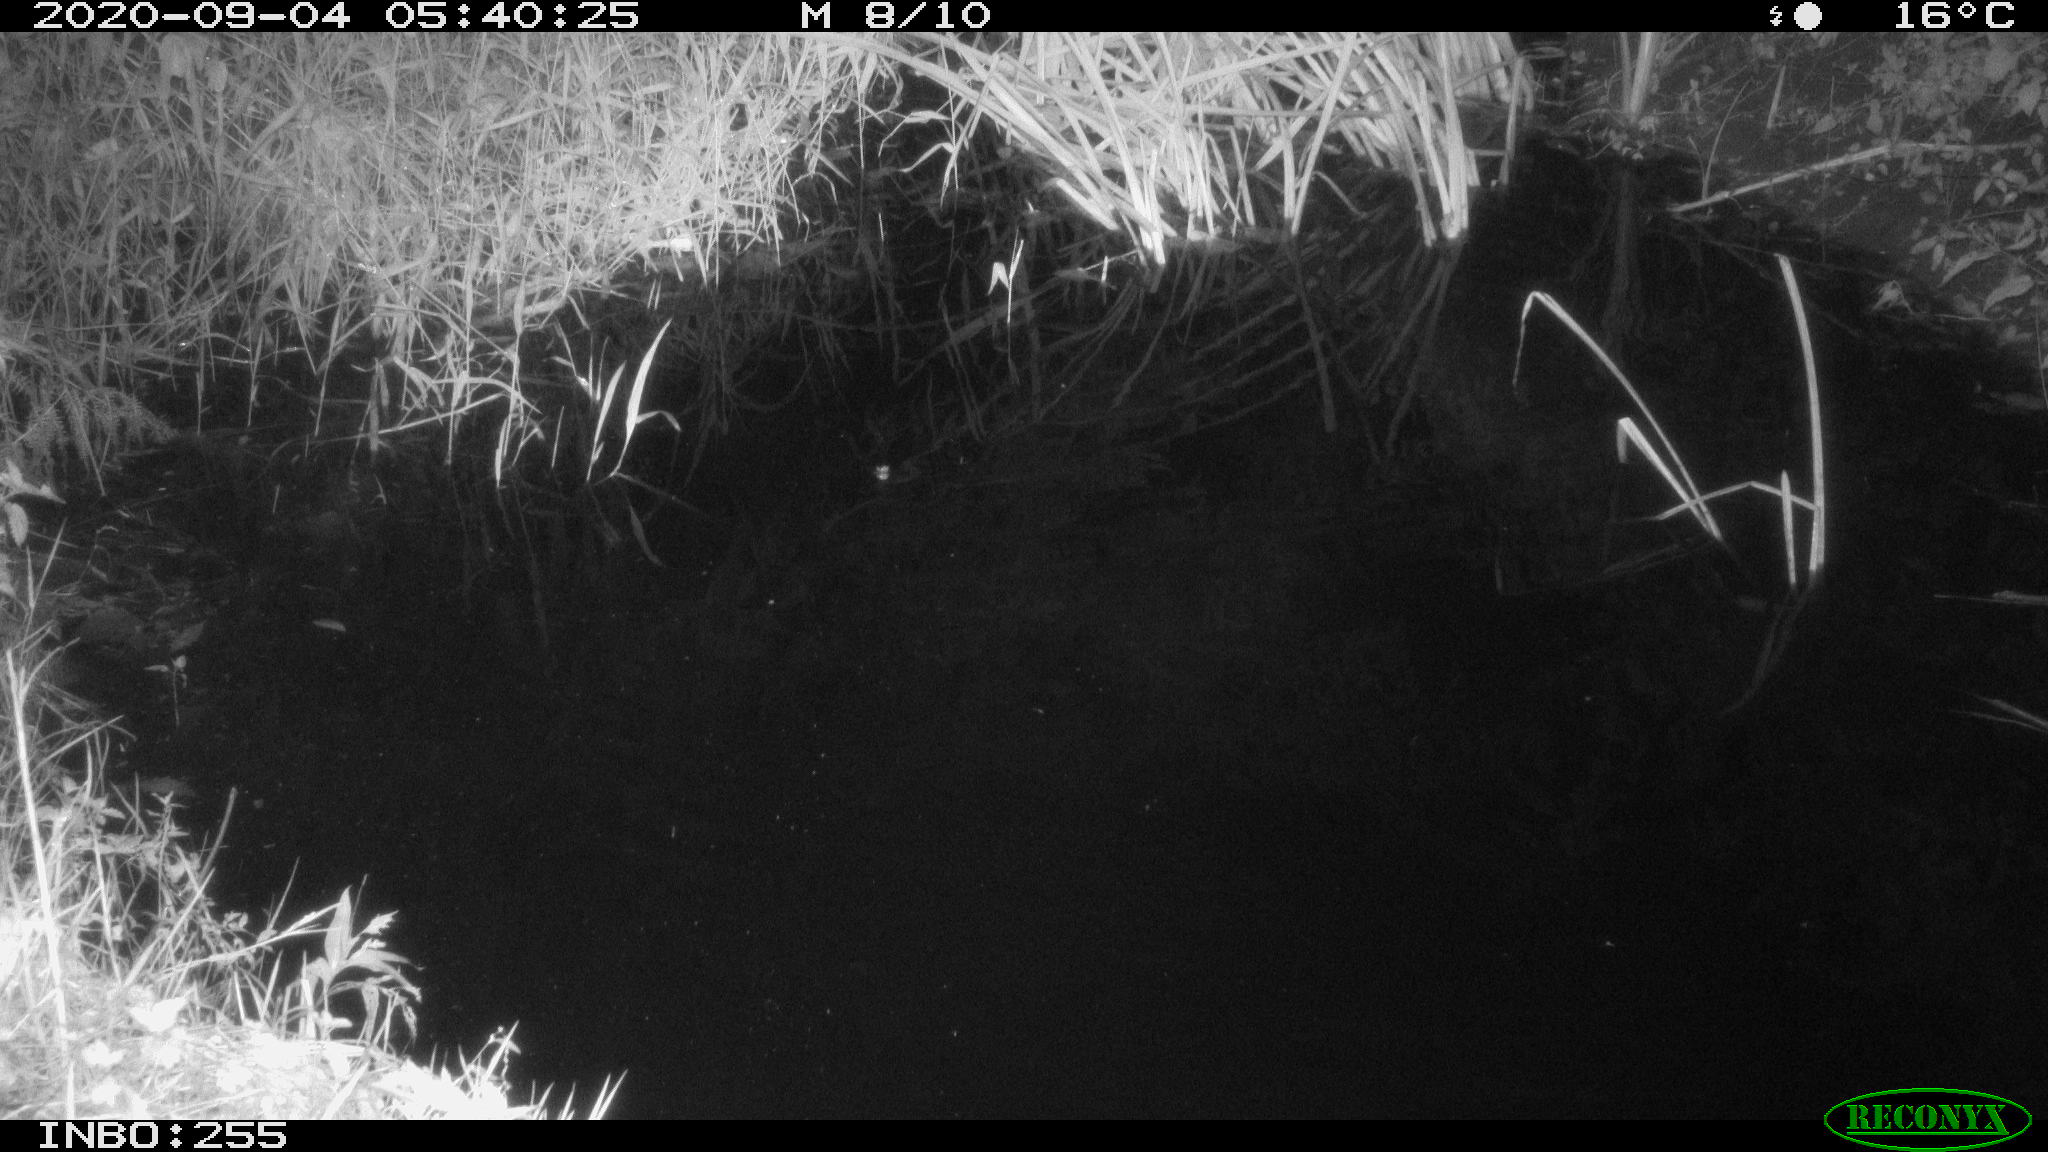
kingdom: Animalia
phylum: Chordata
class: Aves
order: Anseriformes
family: Anatidae
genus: Anas
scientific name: Anas platyrhynchos
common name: Mallard
